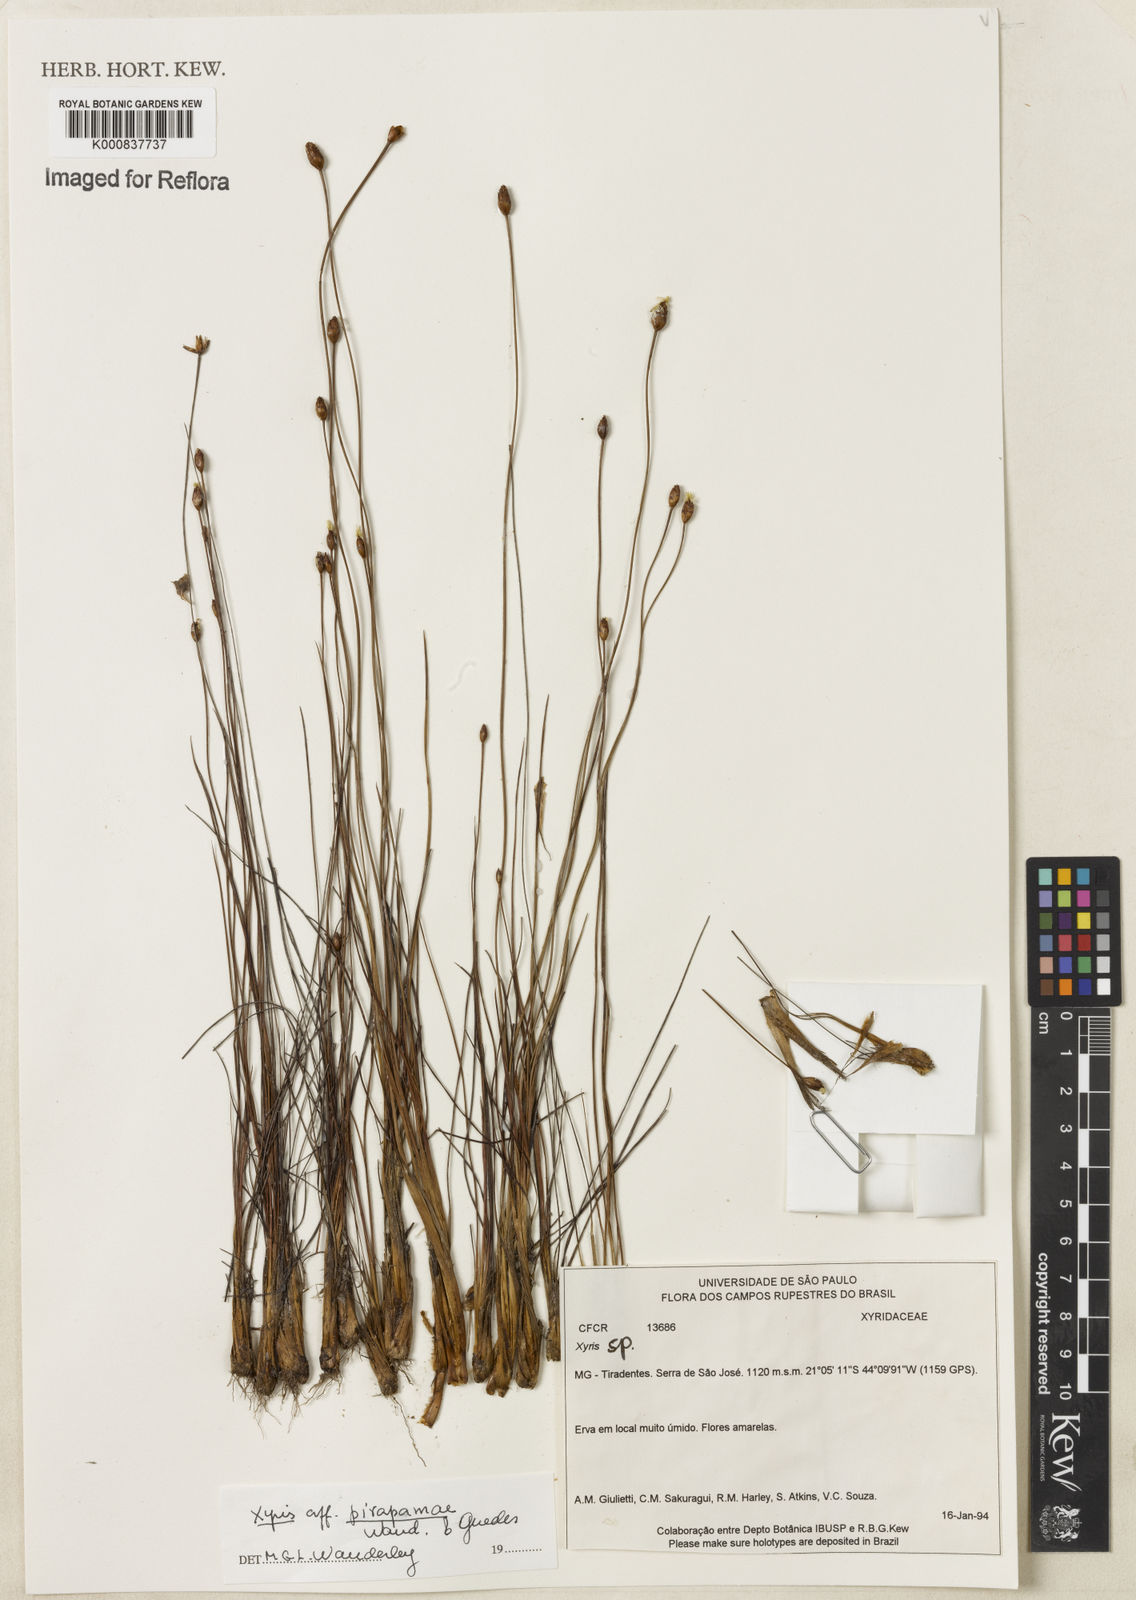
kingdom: Plantae
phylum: Tracheophyta
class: Liliopsida
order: Poales
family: Xyridaceae
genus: Xyris
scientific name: Xyris pirapamae
